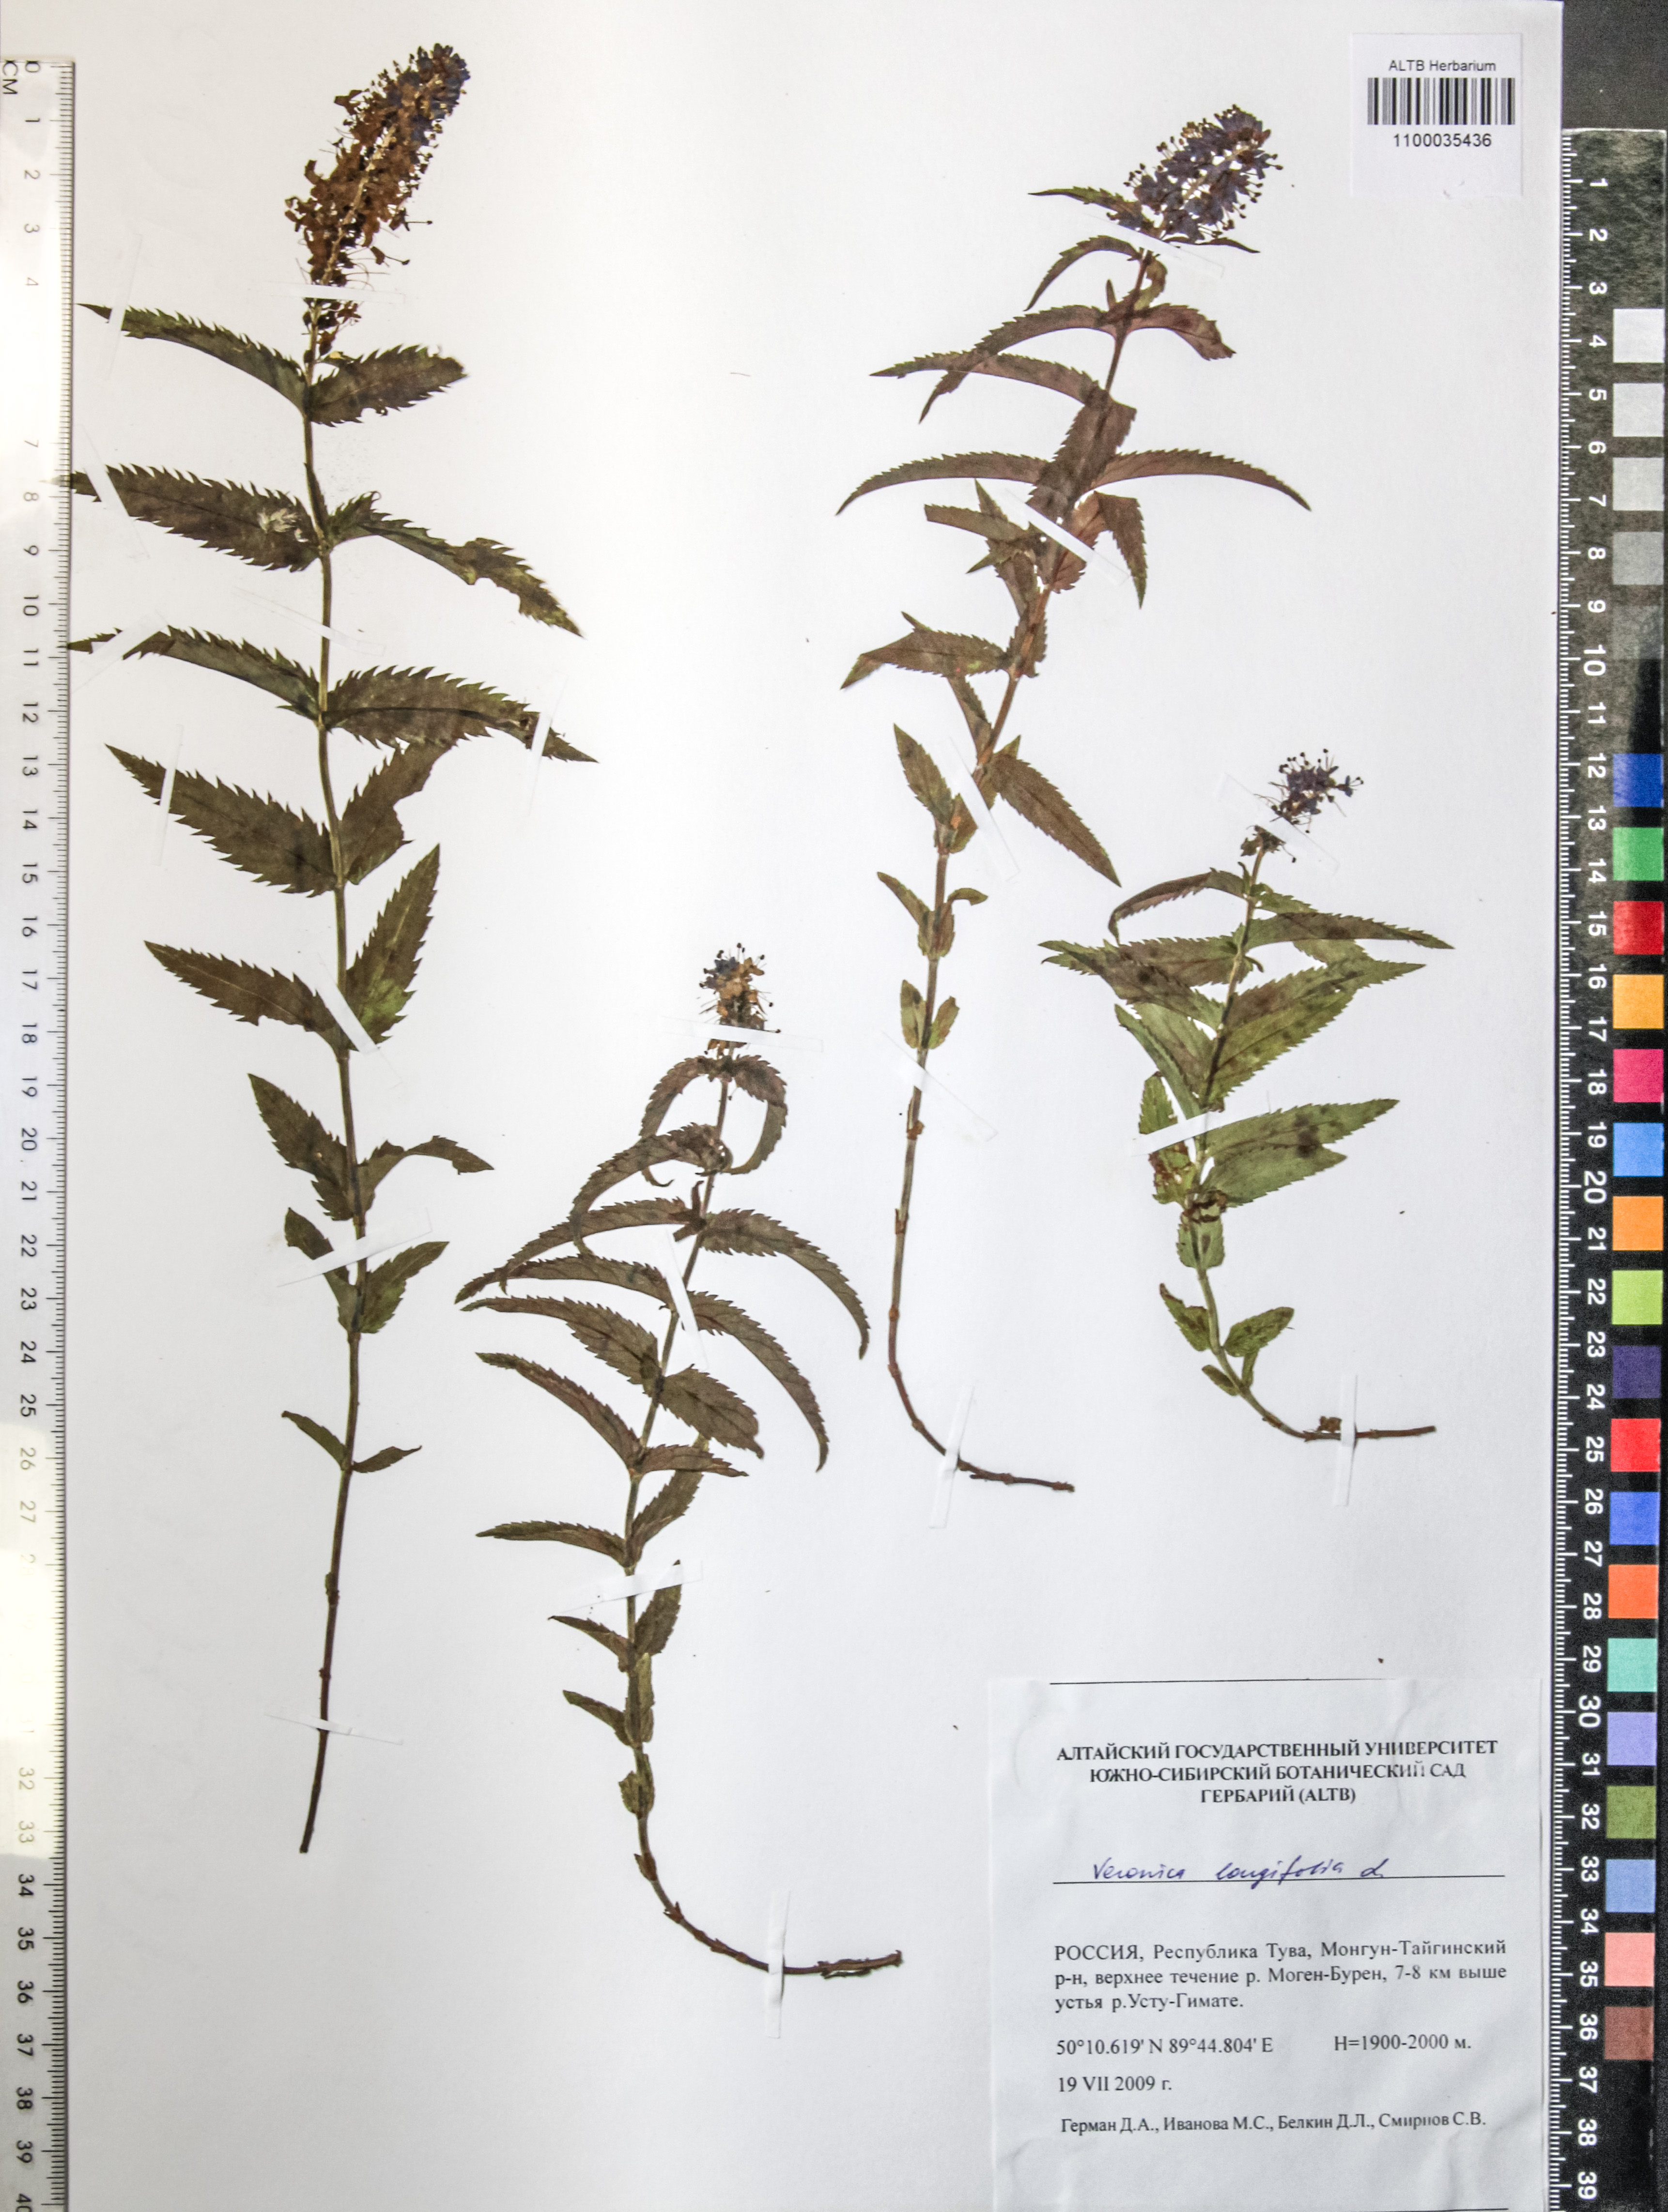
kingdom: Plantae
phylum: Tracheophyta
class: Magnoliopsida
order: Lamiales
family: Plantaginaceae
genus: Veronica
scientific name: Veronica longifolia
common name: Garden speedwell
